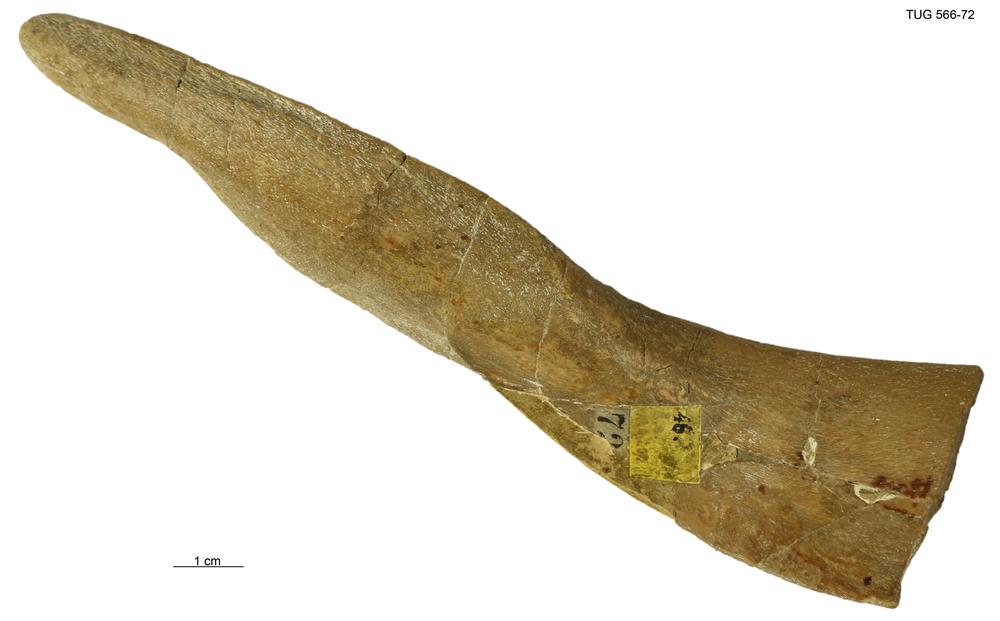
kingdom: Animalia
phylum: Chordata
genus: Homosteus
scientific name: Homosteus latus
